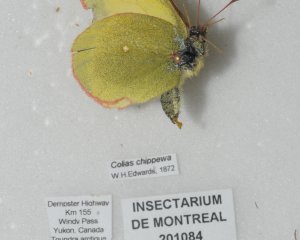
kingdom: Animalia
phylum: Arthropoda
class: Insecta
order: Lepidoptera
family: Pieridae
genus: Colias
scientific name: Colias palaeno
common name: Chippewa Sulphur
